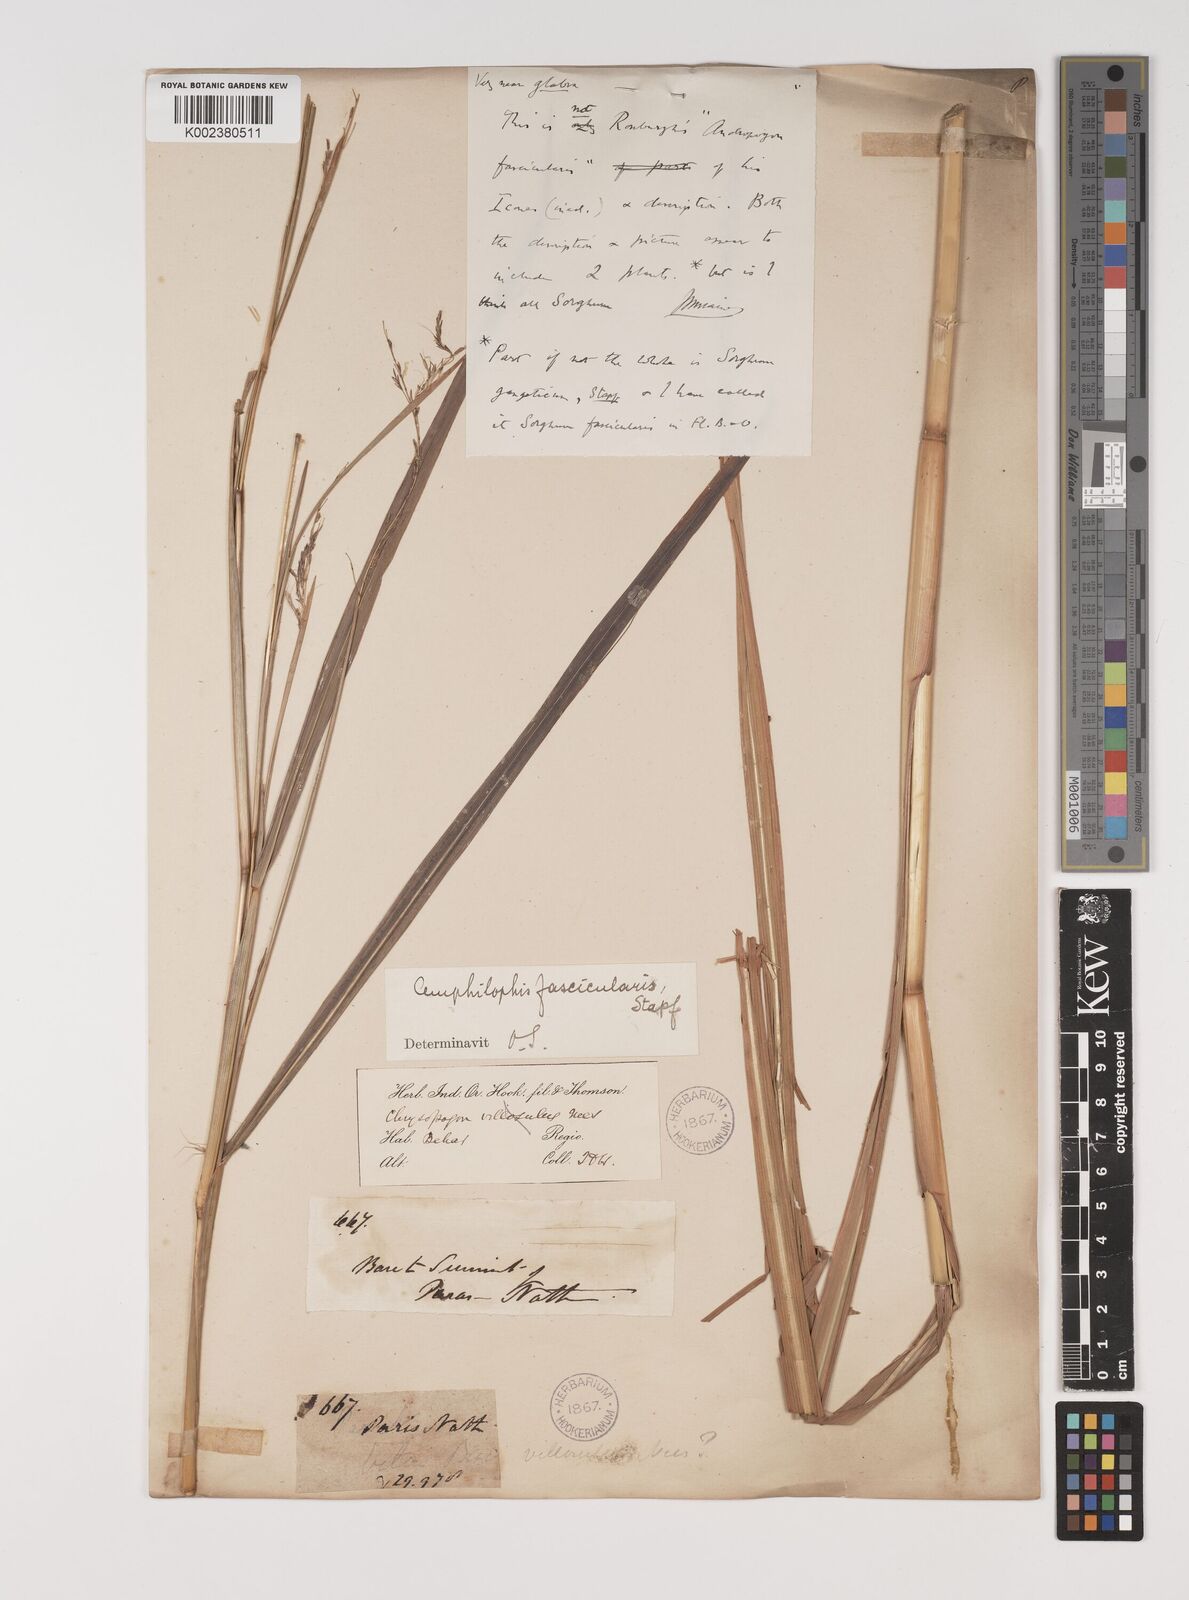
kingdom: Plantae
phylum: Tracheophyta
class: Liliopsida
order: Poales
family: Poaceae
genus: Bothriochloa
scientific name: Bothriochloa bladhii
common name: Caucasian bluestem
